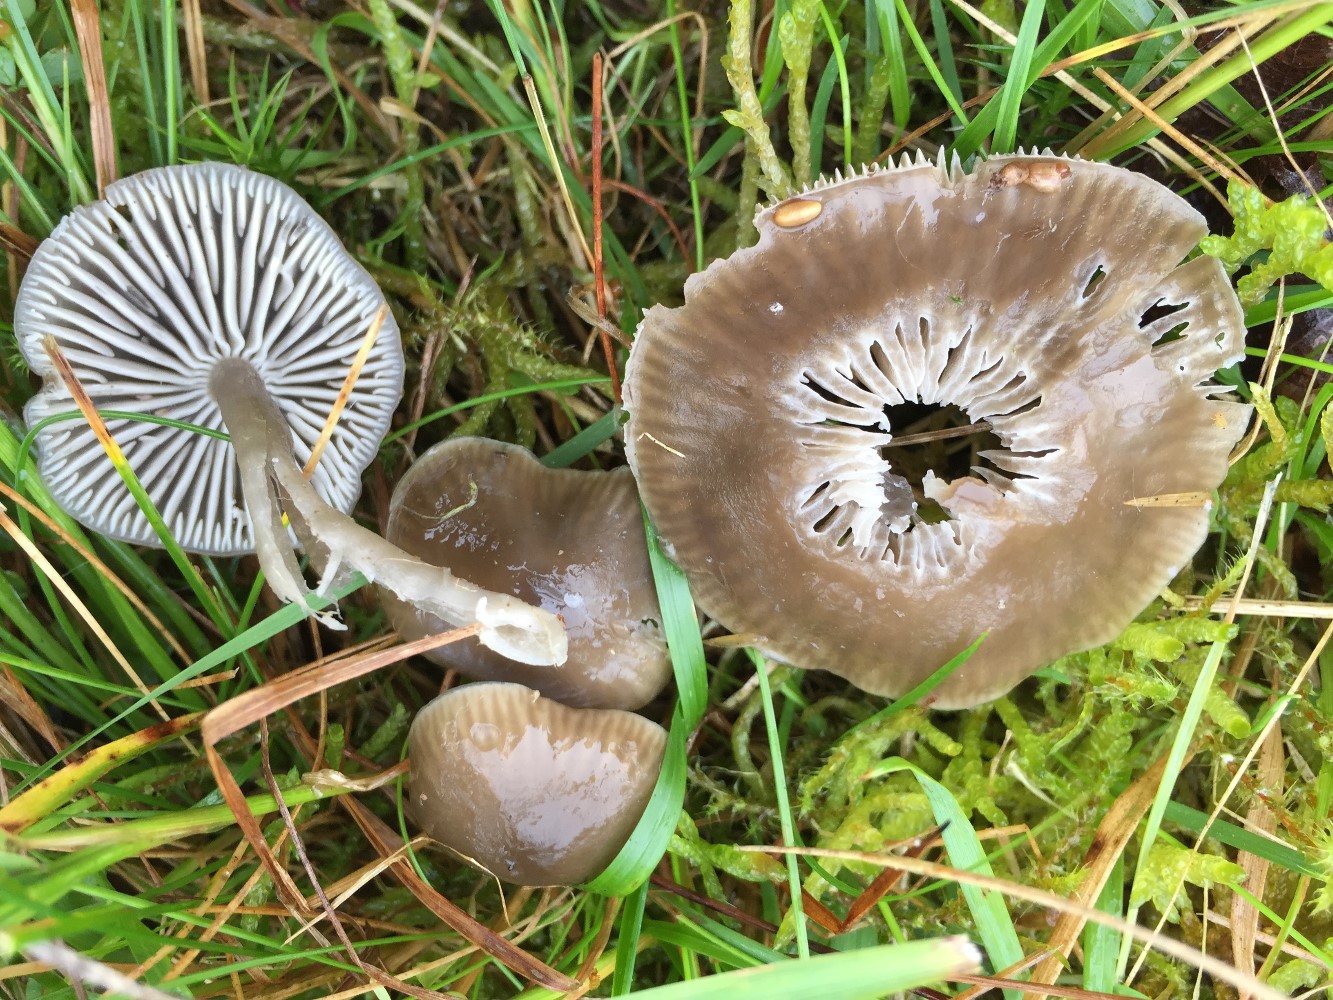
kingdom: Fungi
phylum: Basidiomycota
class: Agaricomycetes
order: Agaricales
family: Hygrophoraceae
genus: Gliophorus
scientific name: Gliophorus irrigatus
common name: slimet vokshat
